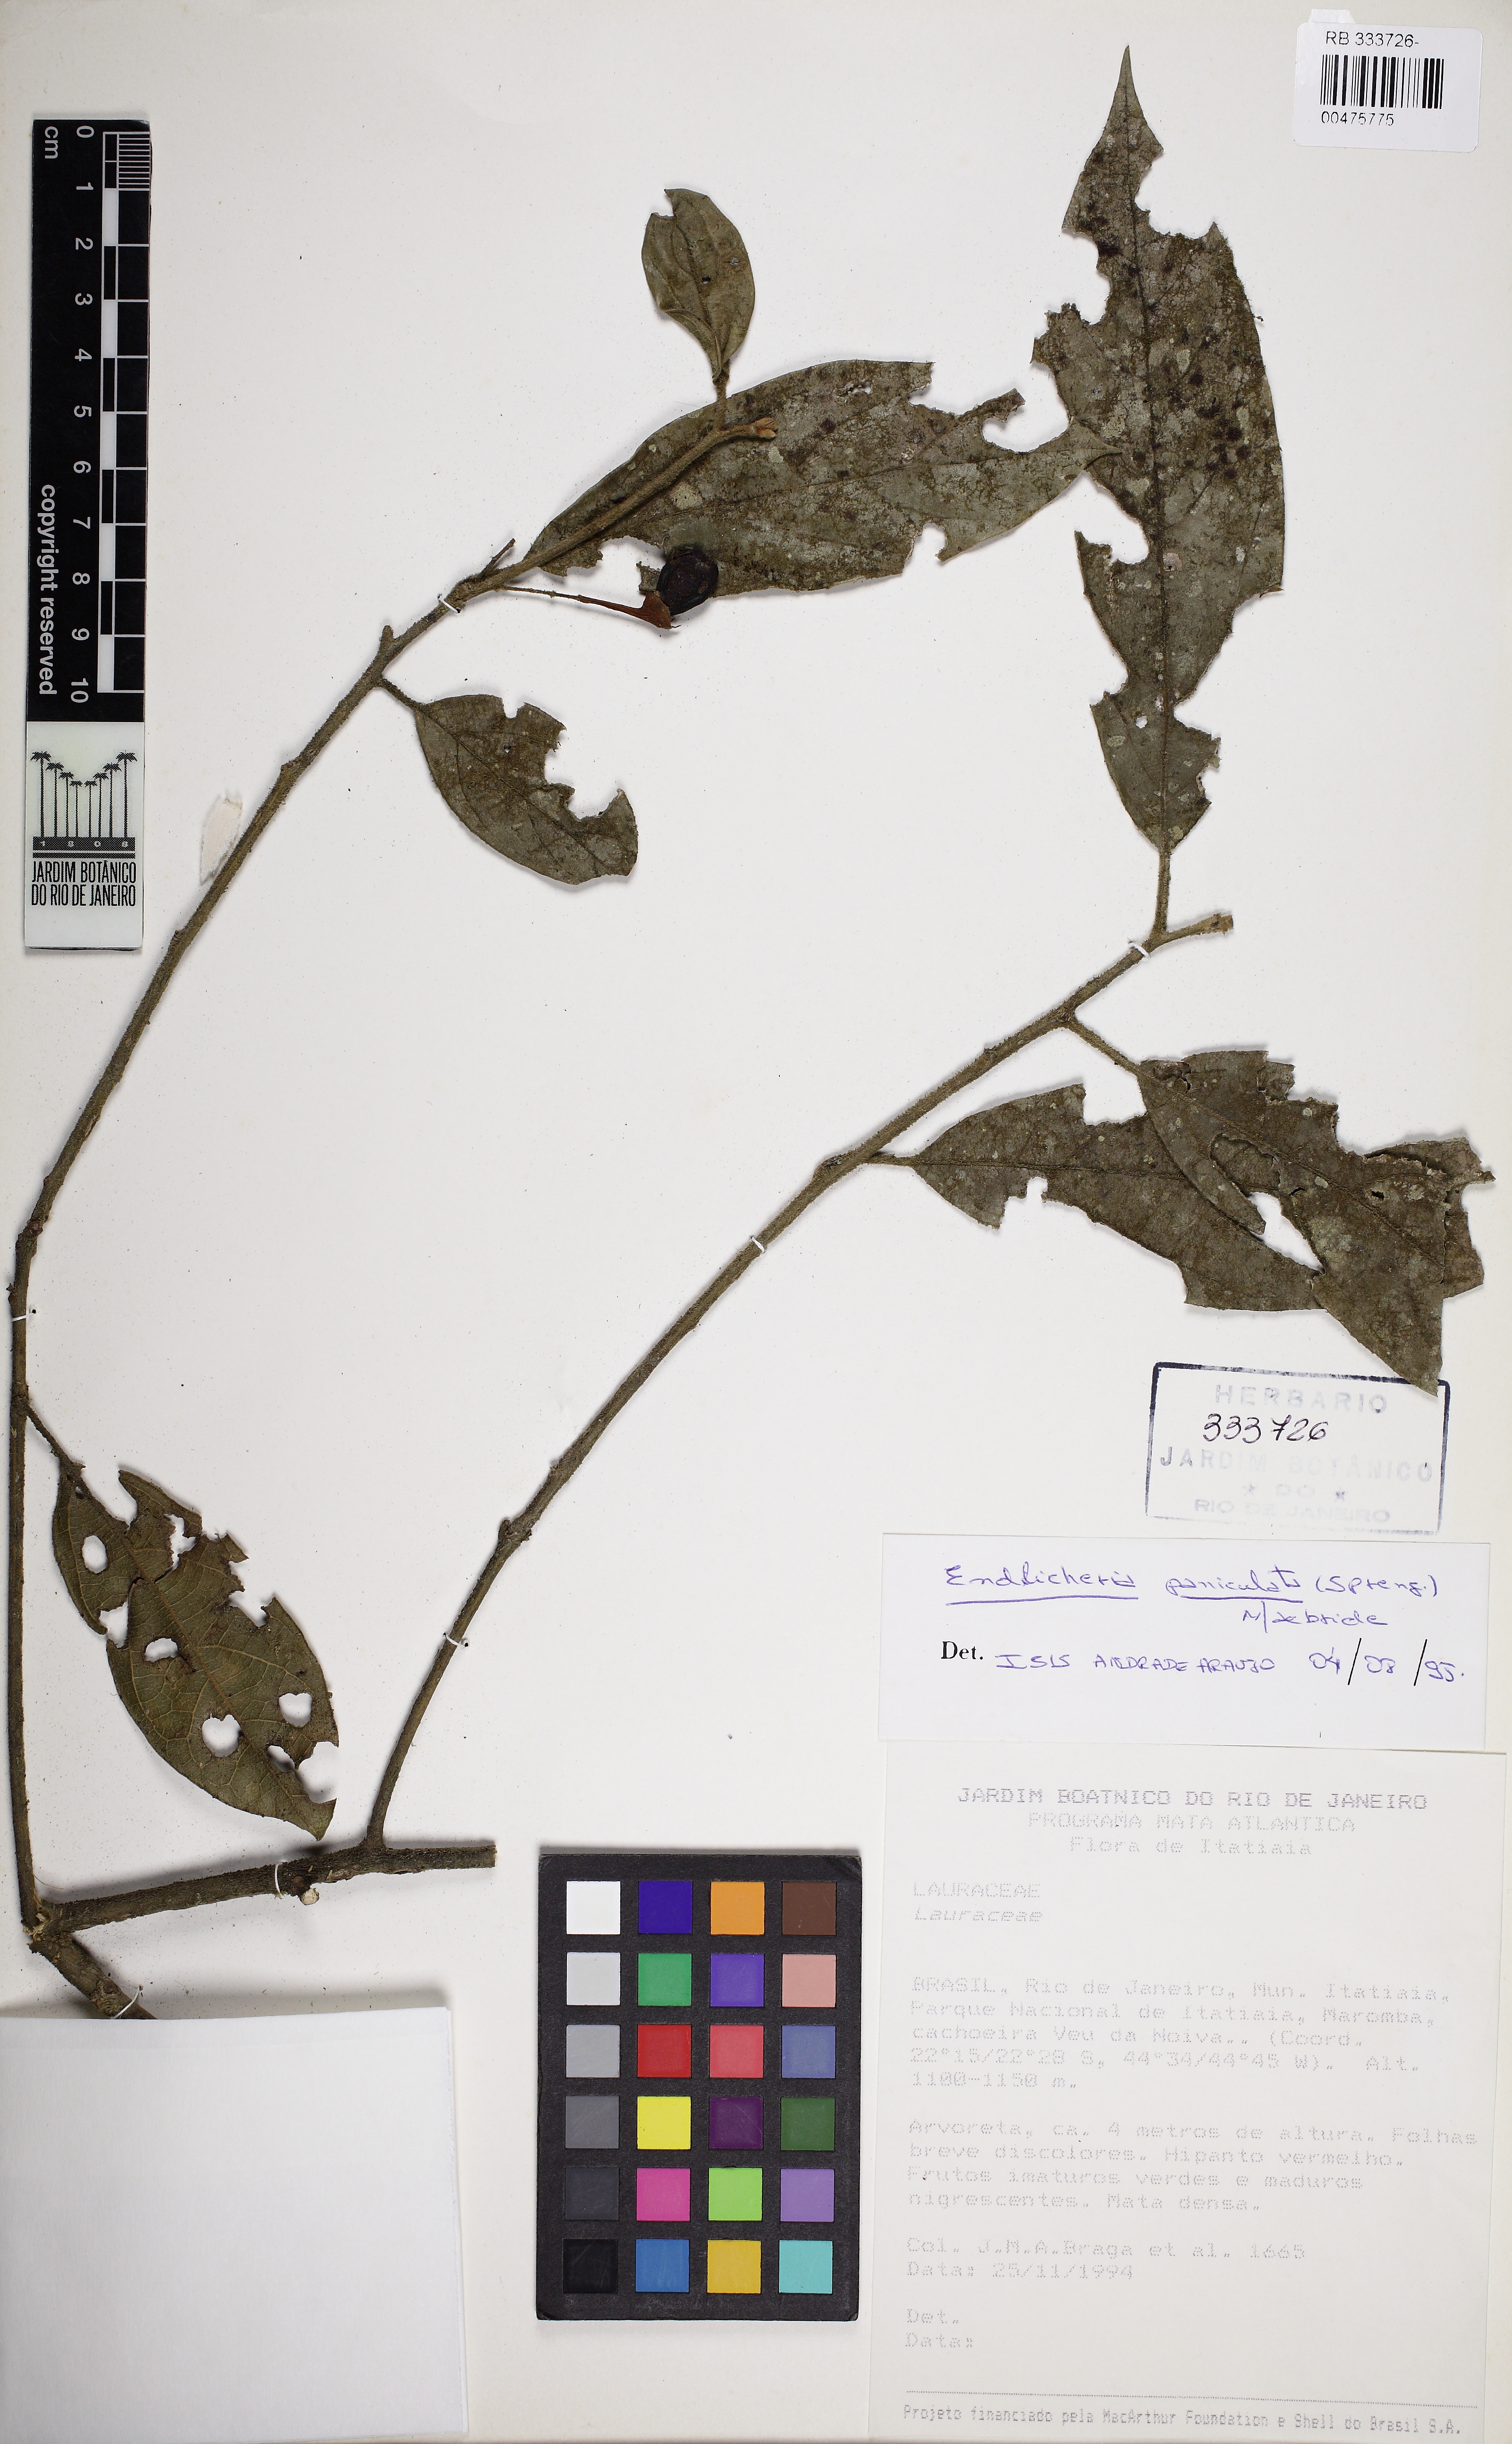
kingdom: Plantae
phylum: Tracheophyta
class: Magnoliopsida
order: Laurales
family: Lauraceae
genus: Endlicheria
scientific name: Endlicheria paniculata
